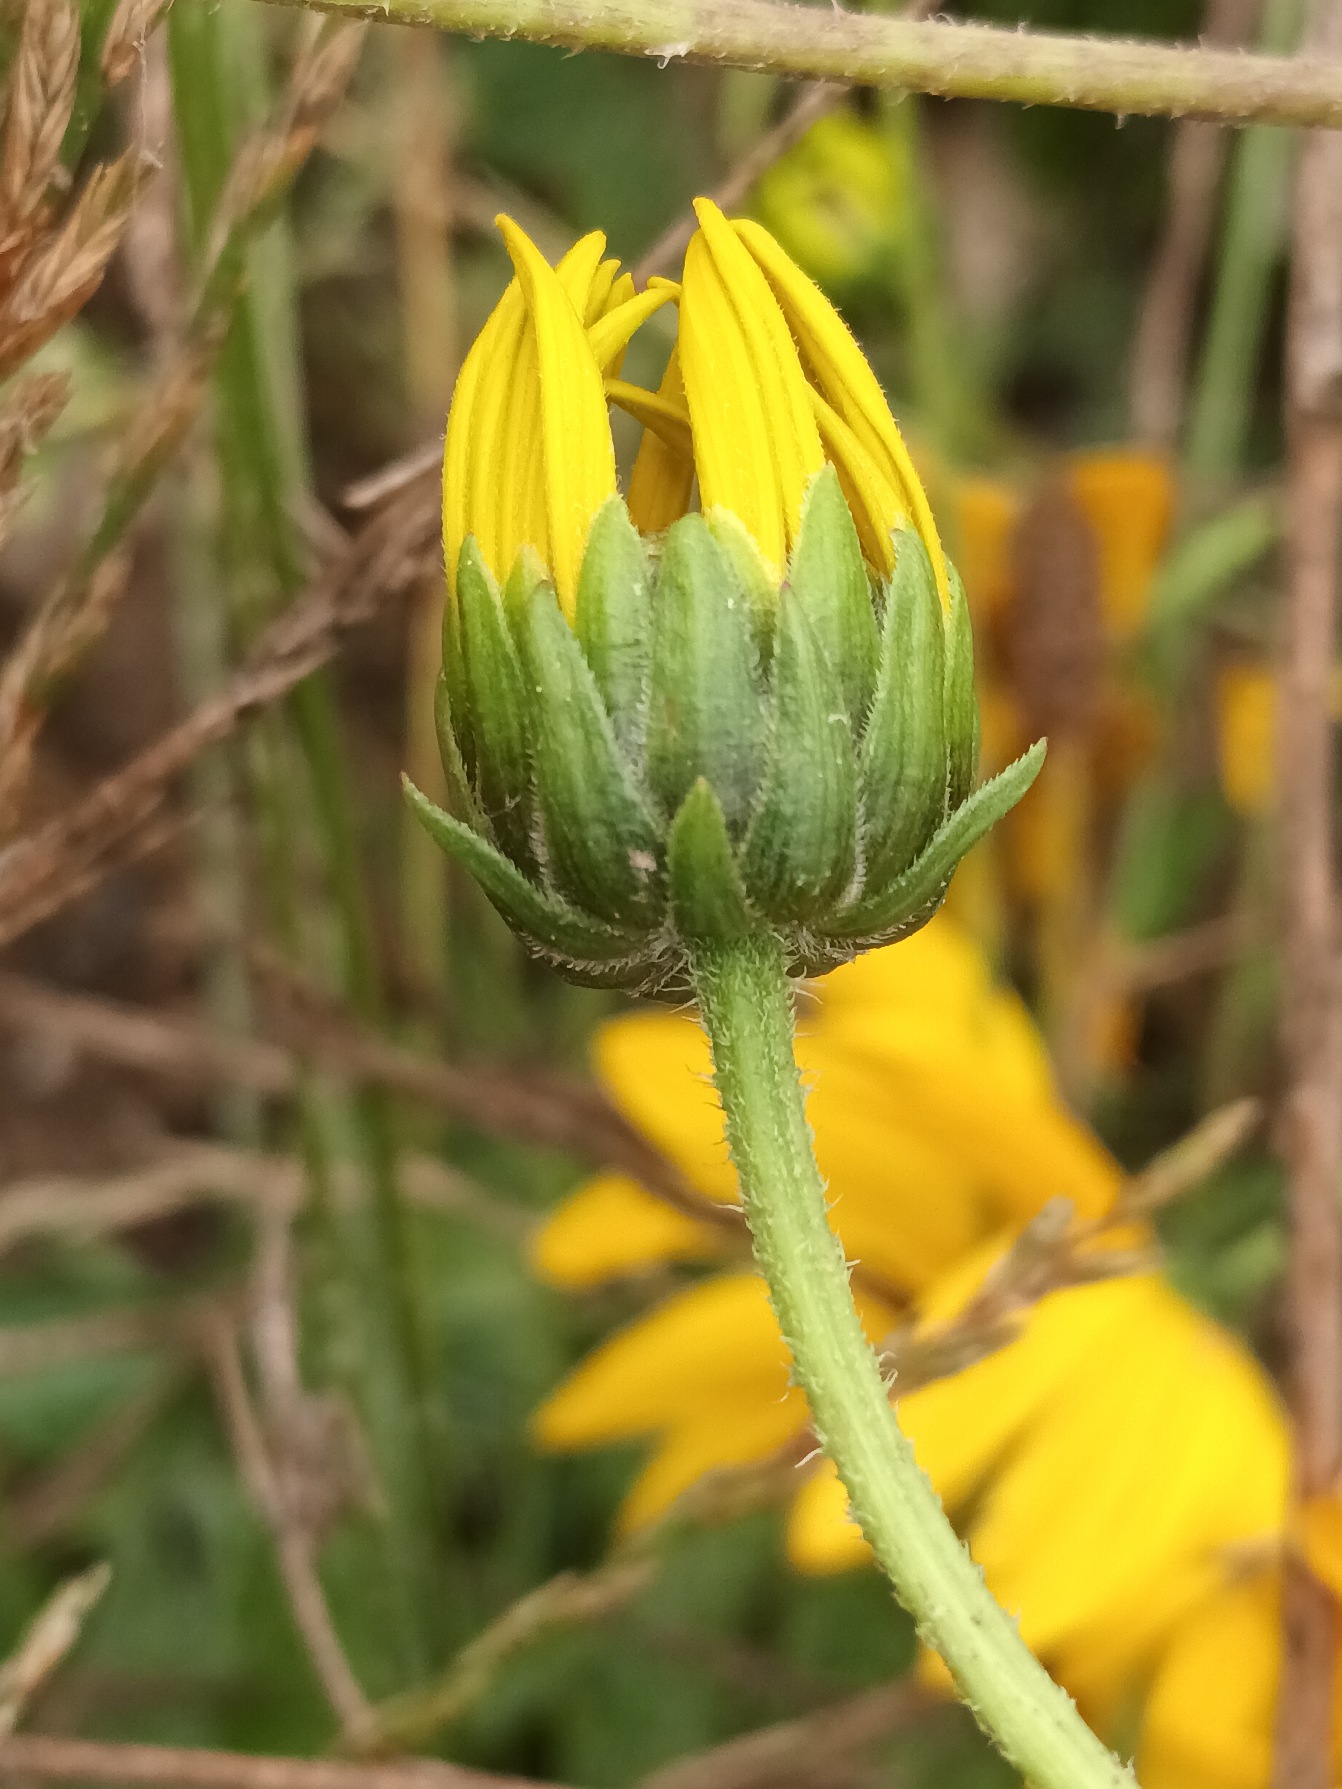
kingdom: Plantae
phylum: Tracheophyta
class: Magnoliopsida
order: Asterales
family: Asteraceae
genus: Helianthus
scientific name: Helianthus laetiflorus
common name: Staude-solsikke × jordskok
